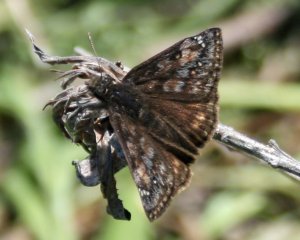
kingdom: Animalia
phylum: Arthropoda
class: Insecta
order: Lepidoptera
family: Hesperiidae
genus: Gesta
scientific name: Gesta
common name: Juvenal's Duskywing
